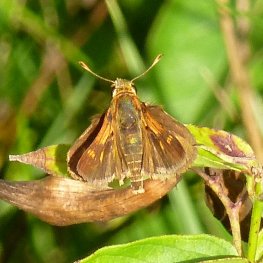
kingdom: Animalia
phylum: Arthropoda
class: Insecta
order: Lepidoptera
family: Hesperiidae
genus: Polites
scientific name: Polites themistocles
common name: Tawny-edged Skipper
